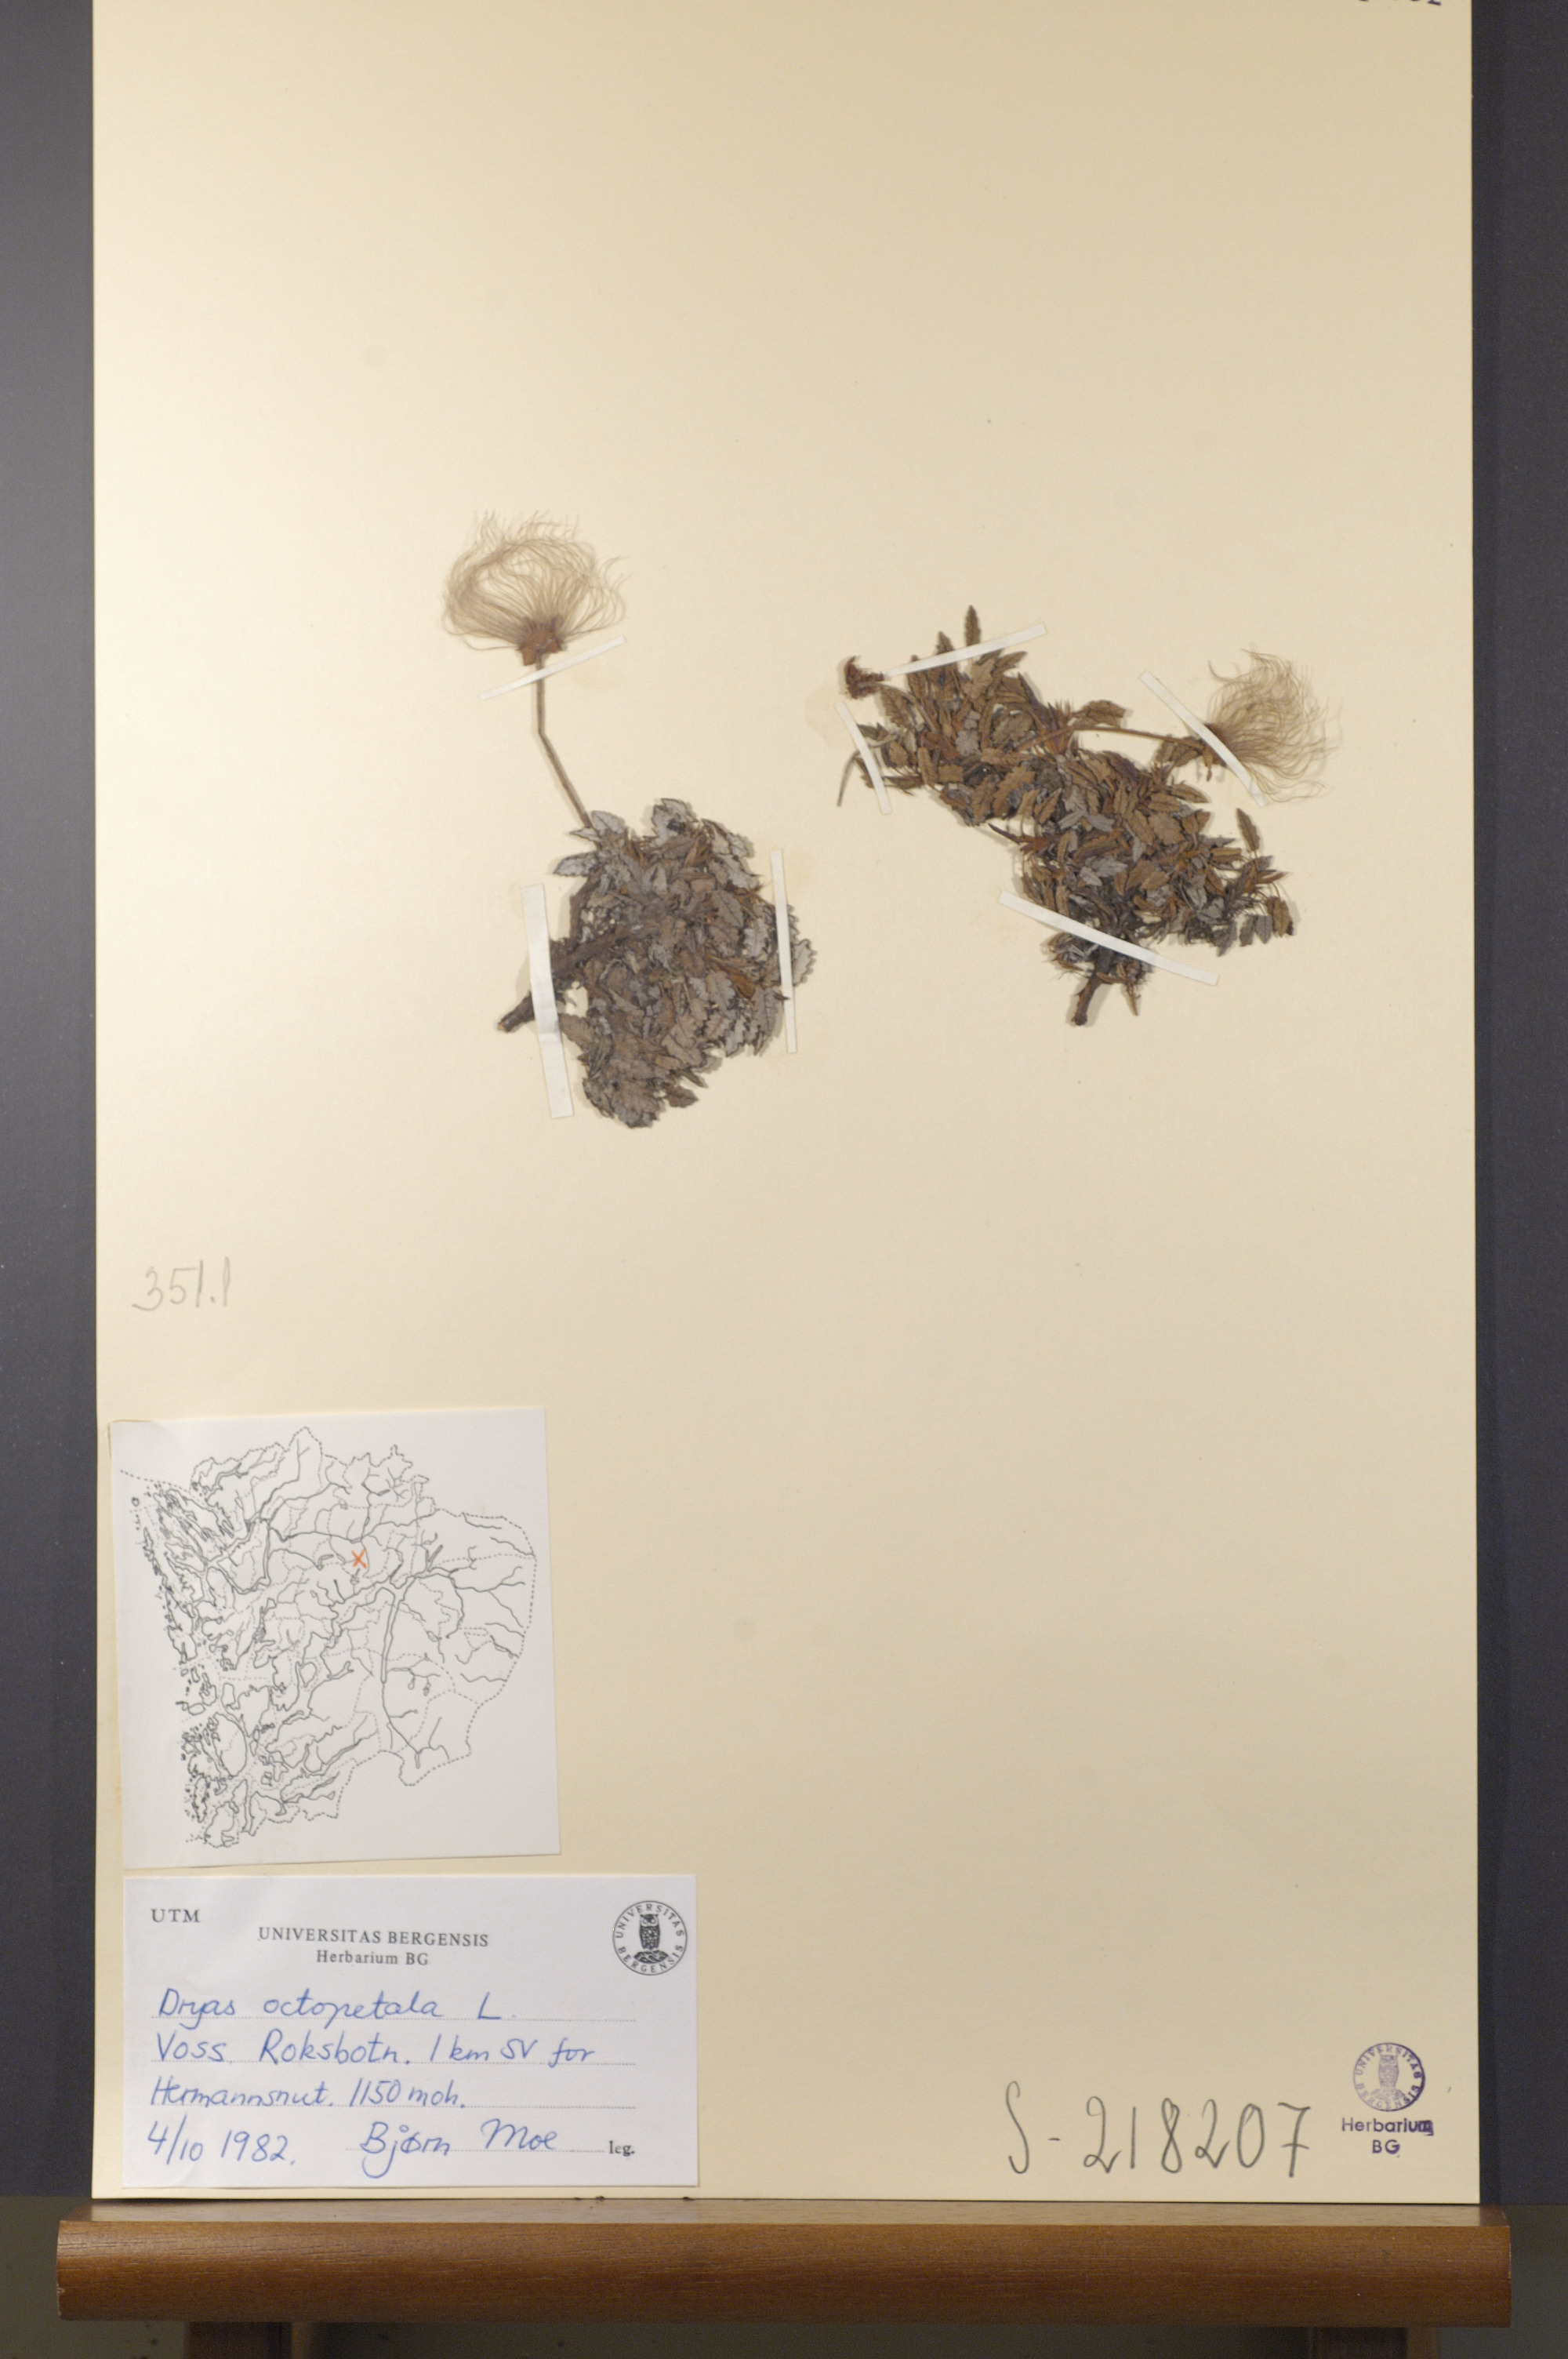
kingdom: Plantae
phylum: Tracheophyta
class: Magnoliopsida
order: Rosales
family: Rosaceae
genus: Dryas
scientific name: Dryas octopetala
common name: Eight-petal mountain-avens
